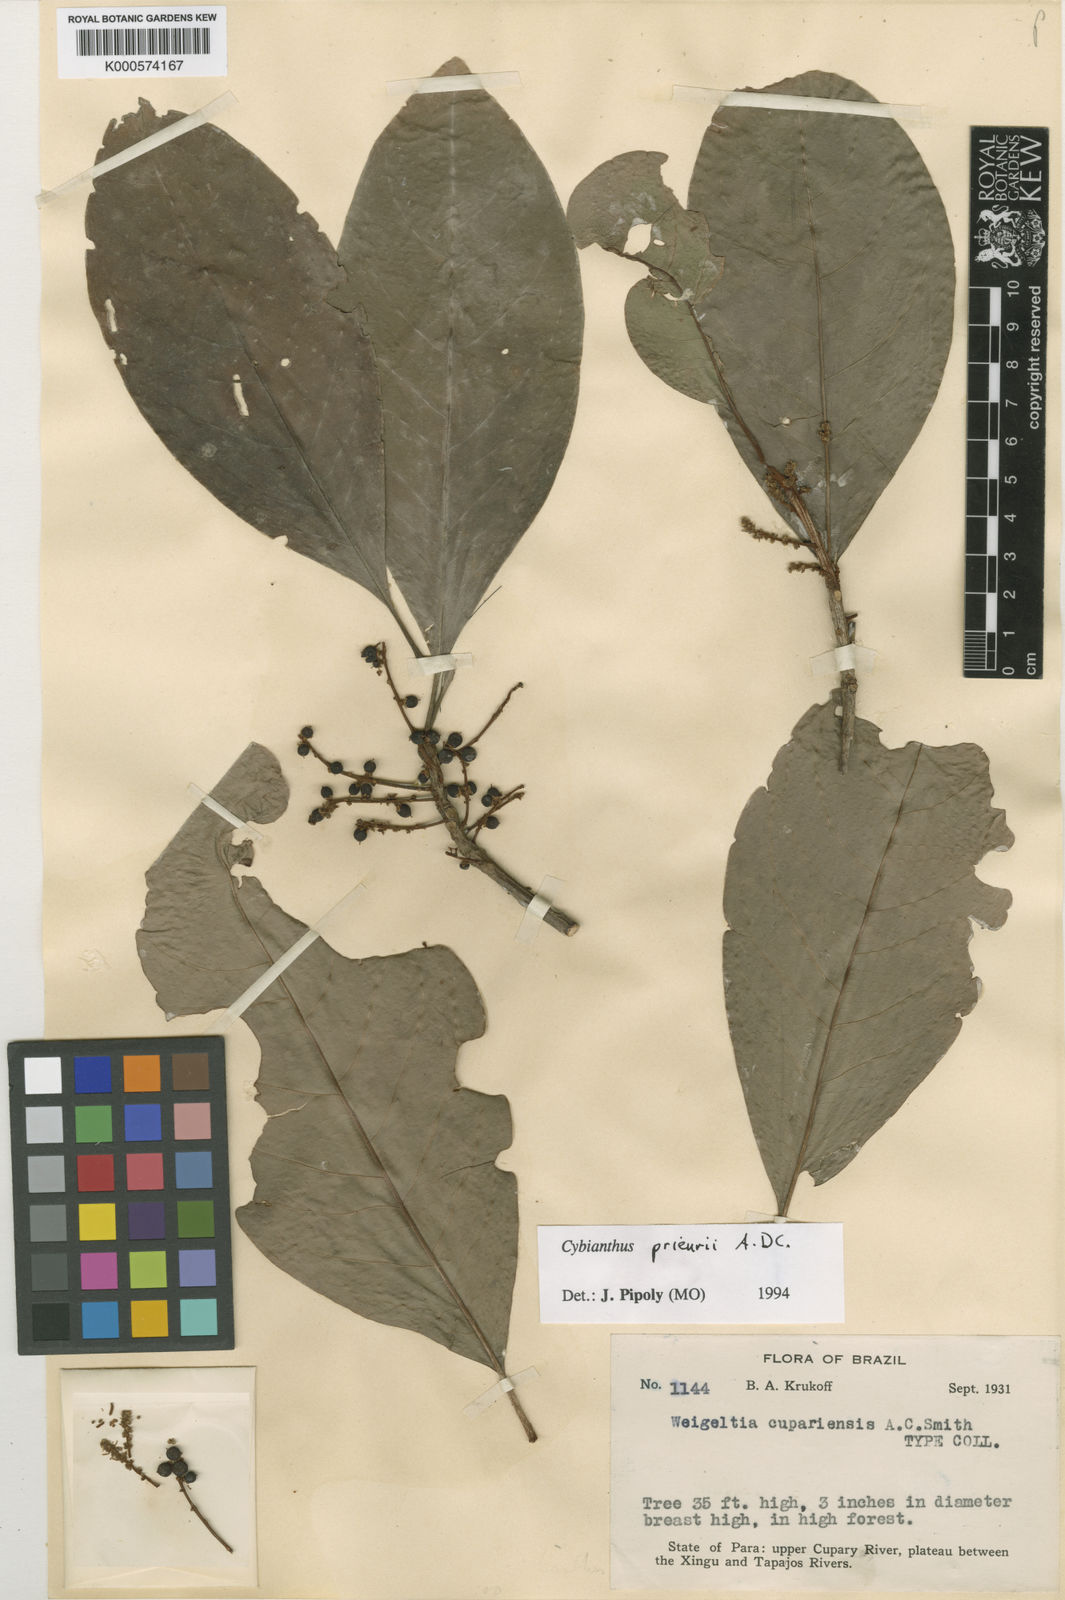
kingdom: Plantae
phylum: Tracheophyta
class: Magnoliopsida
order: Ericales
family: Primulaceae
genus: Cybianthus
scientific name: Cybianthus prieurii
